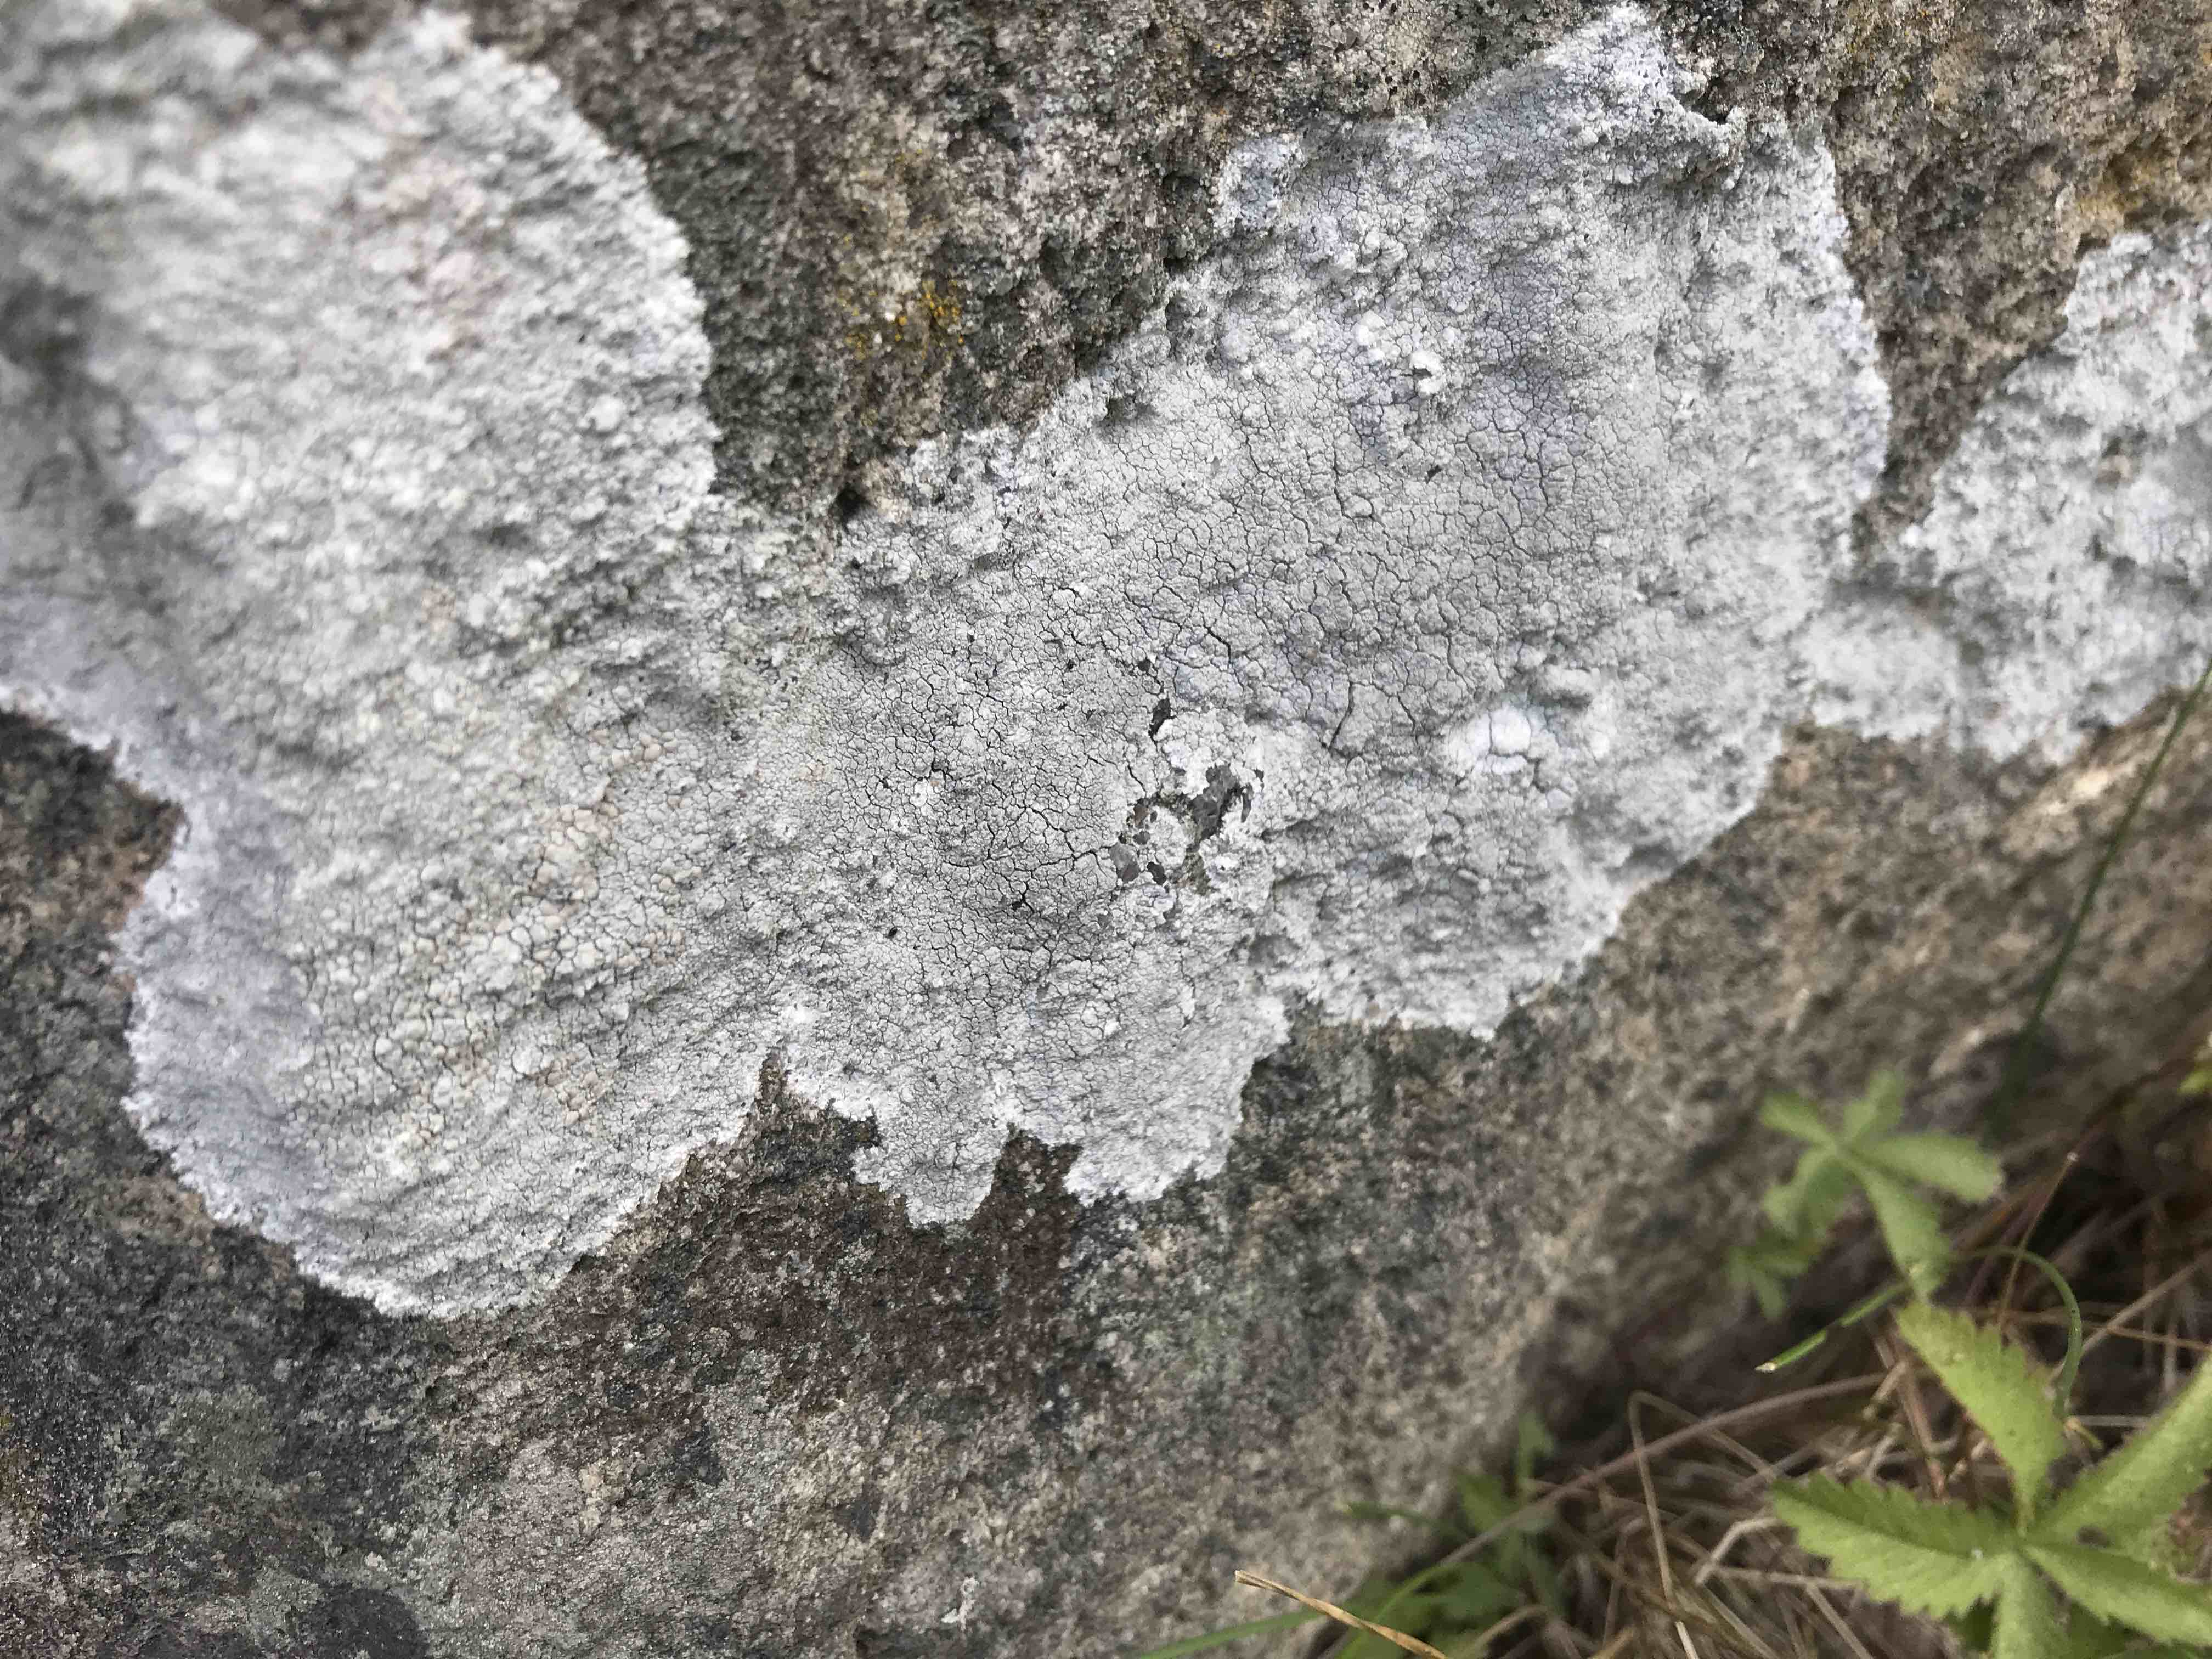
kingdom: Fungi
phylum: Ascomycota
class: Lecanoromycetes
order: Lecanorales
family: Lecanoraceae
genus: Glaucomaria
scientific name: Glaucomaria rupicola
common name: stengærde-kantskivelav
